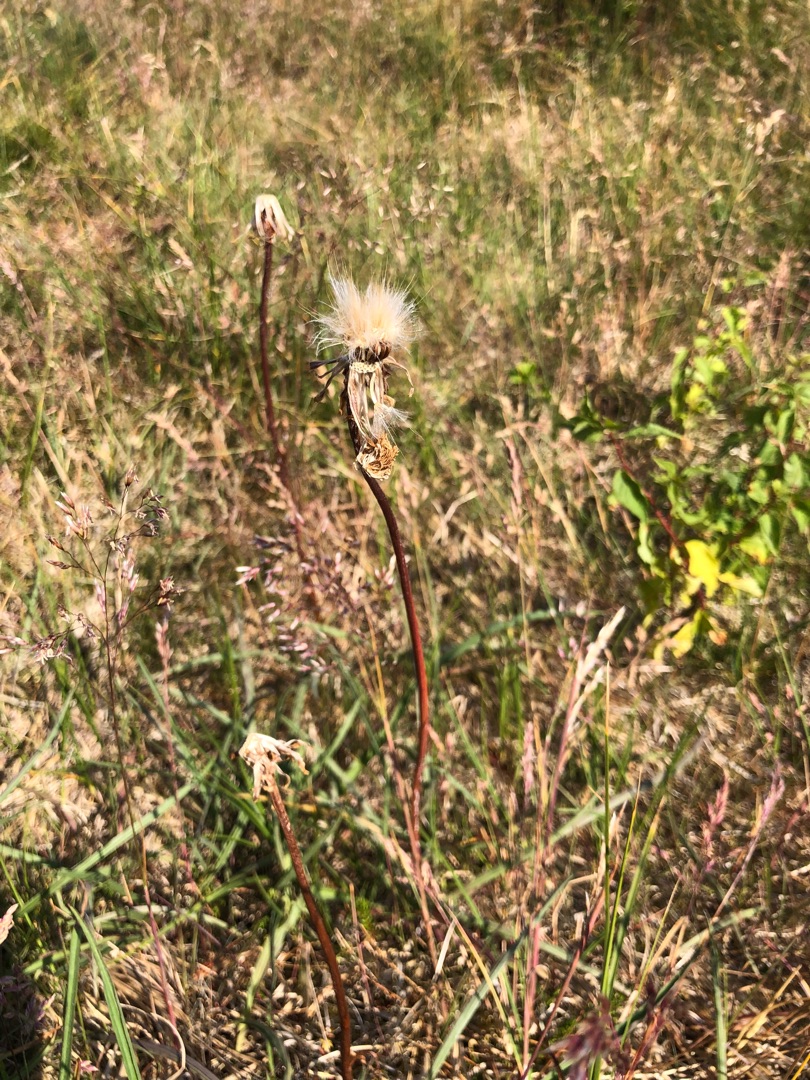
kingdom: Plantae
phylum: Tracheophyta
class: Magnoliopsida
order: Asterales
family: Asteraceae
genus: Scorzonera
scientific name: Scorzonera humilis
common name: Lav skorsoner
